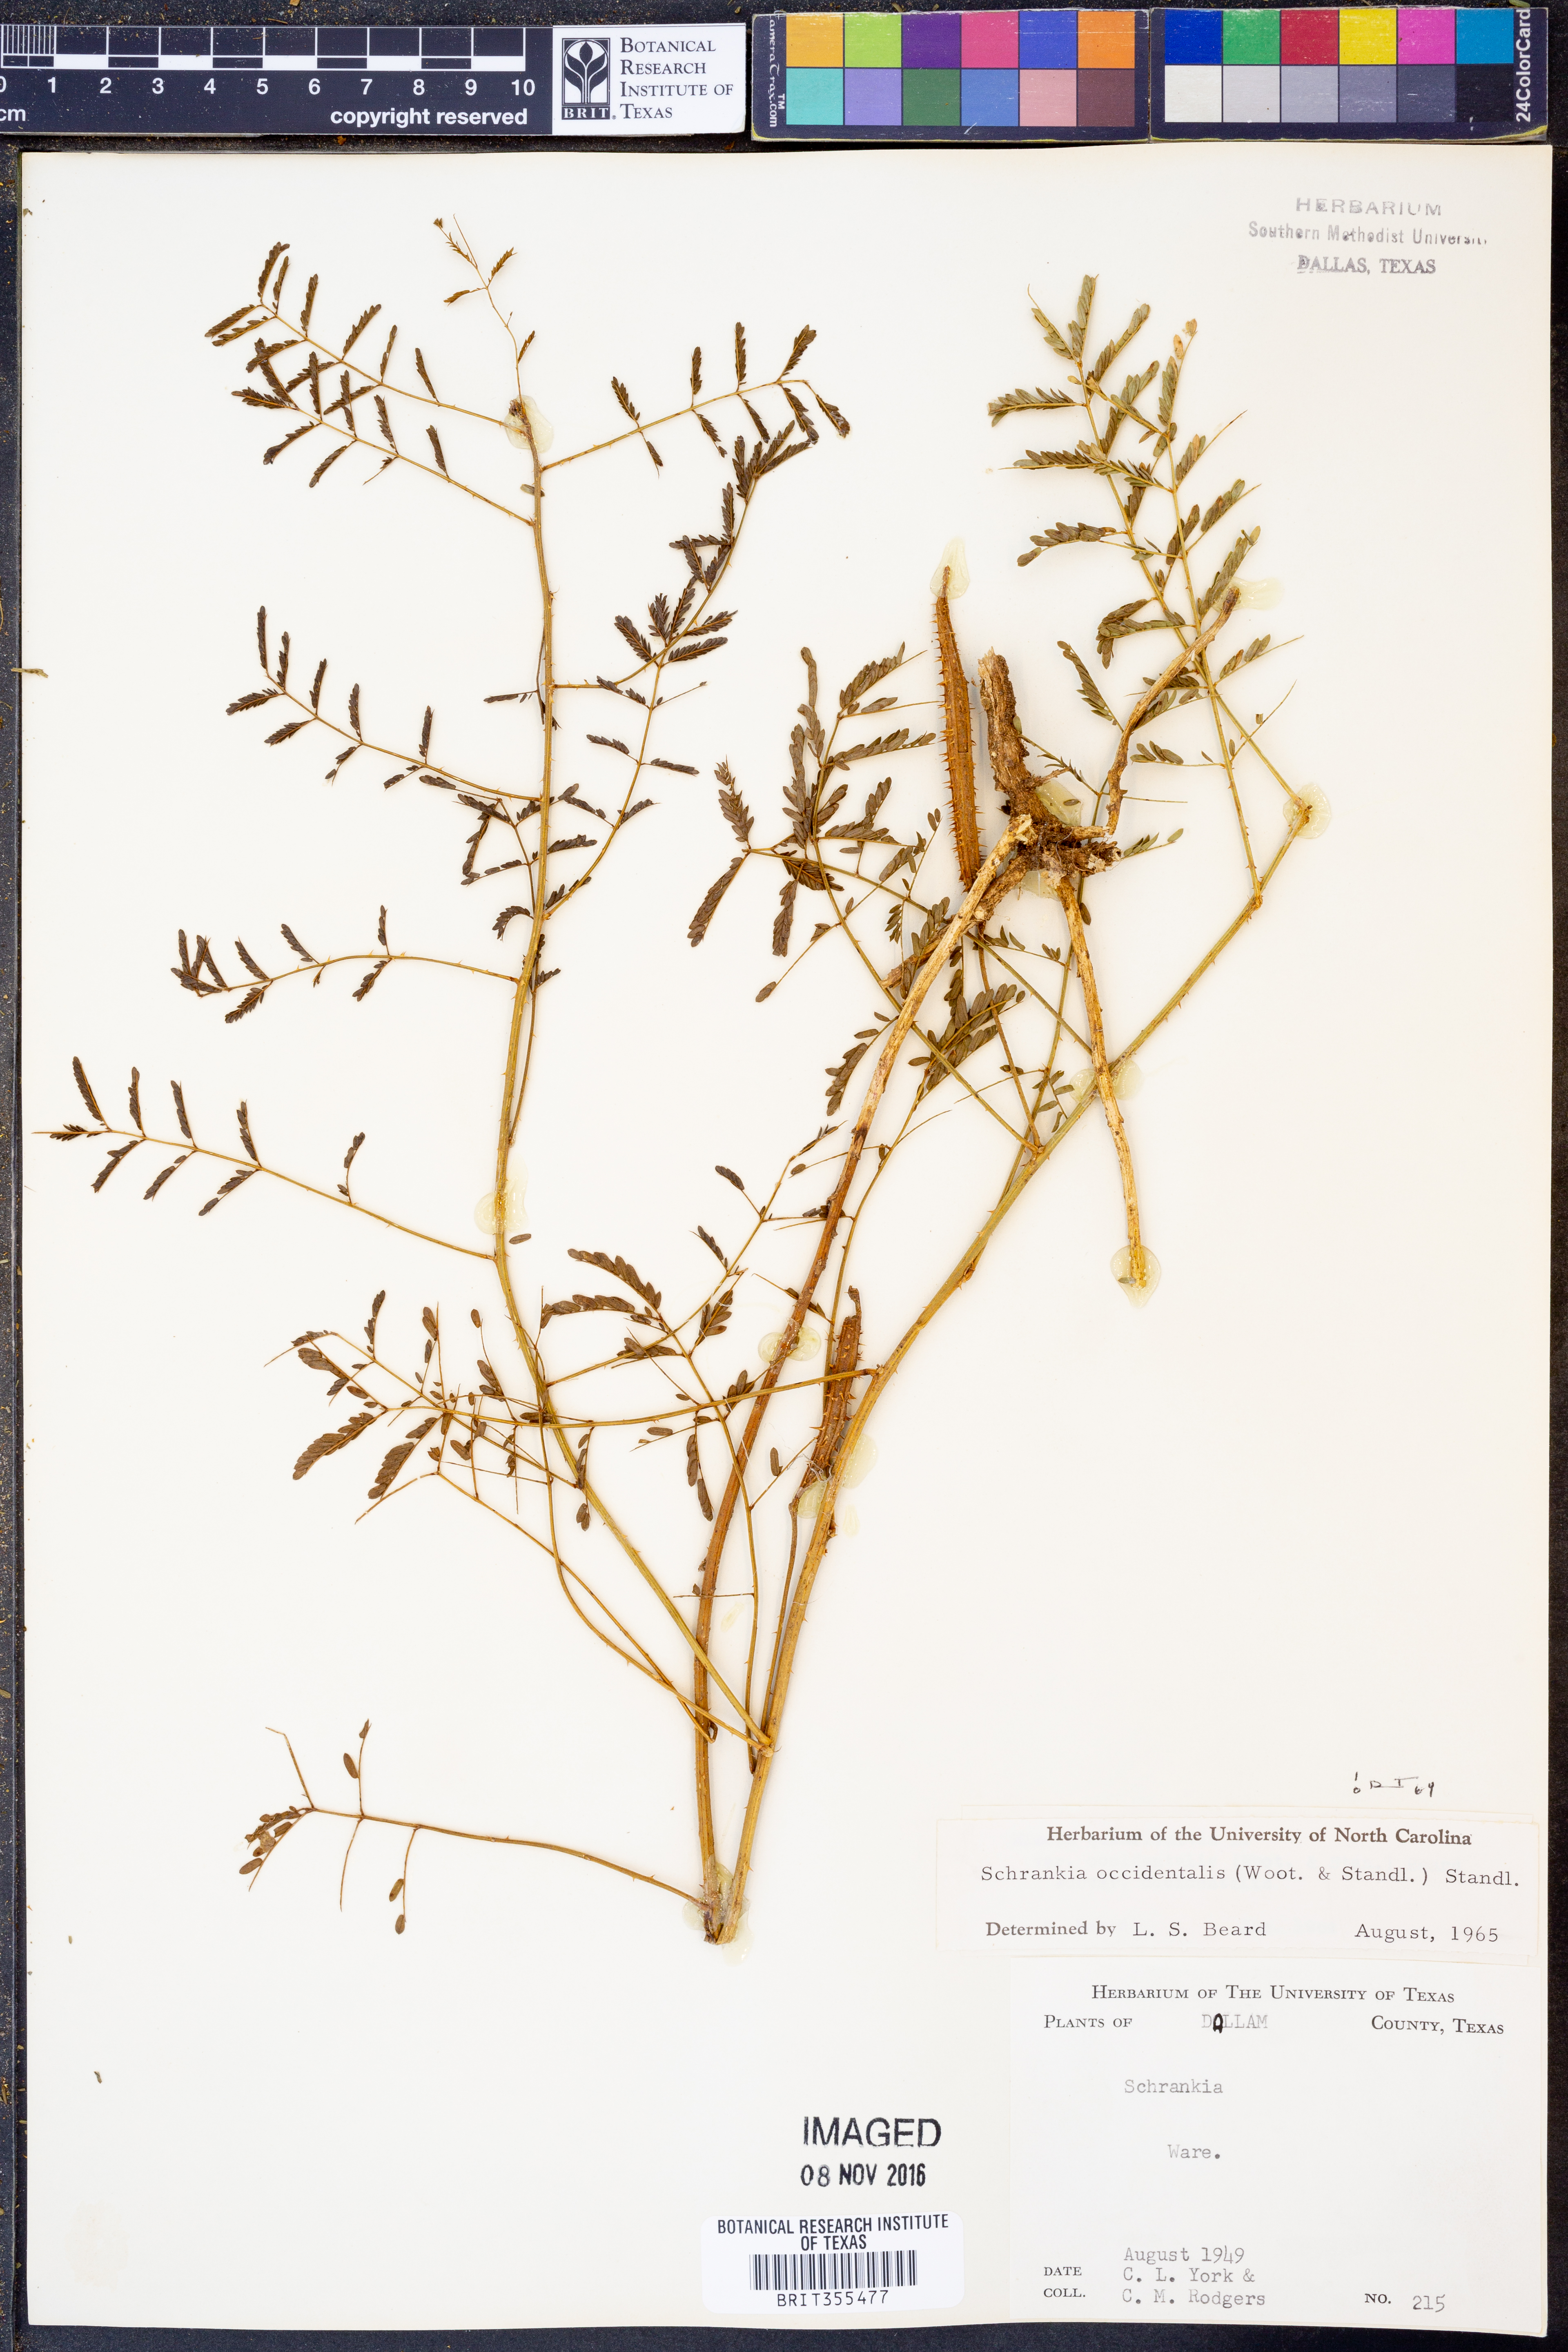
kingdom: Plantae
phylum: Tracheophyta
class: Magnoliopsida
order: Fabales
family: Fabaceae
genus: Mimosa
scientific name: Mimosa quadrivalvis
